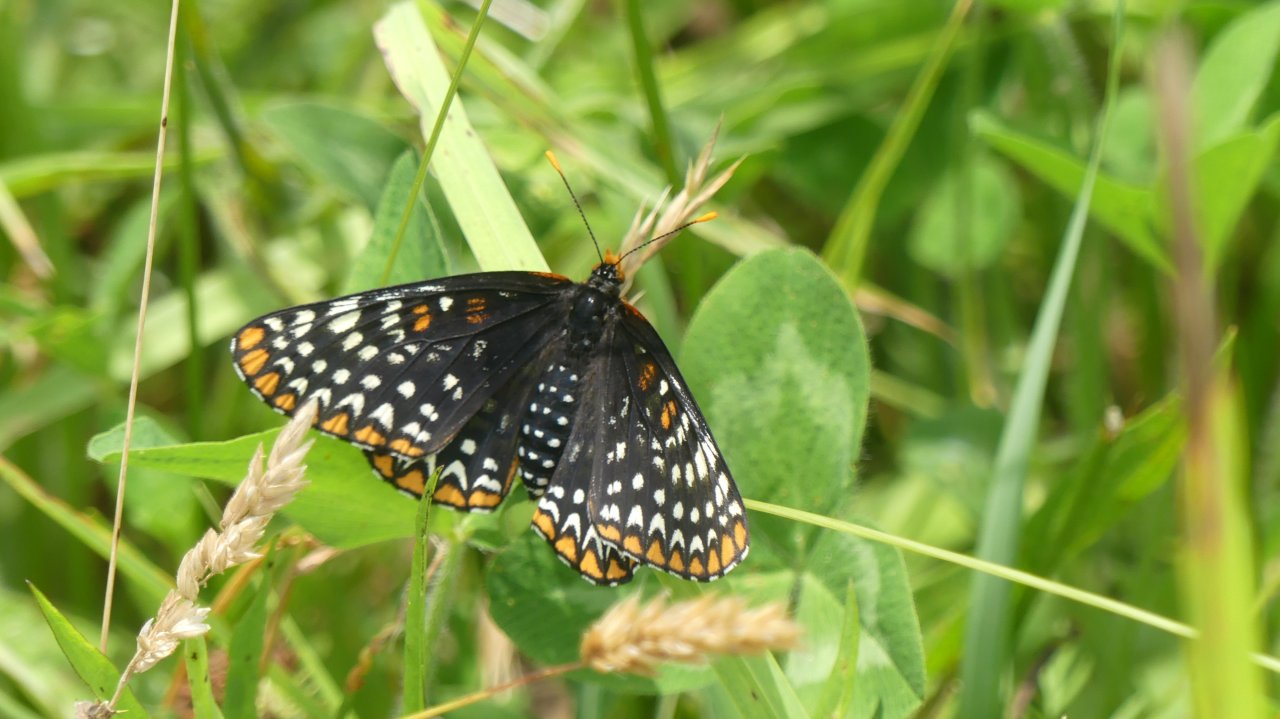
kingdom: Animalia
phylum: Arthropoda
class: Insecta
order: Lepidoptera
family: Nymphalidae
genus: Euphydryas
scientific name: Euphydryas phaeton
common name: Baltimore Checkerspot
